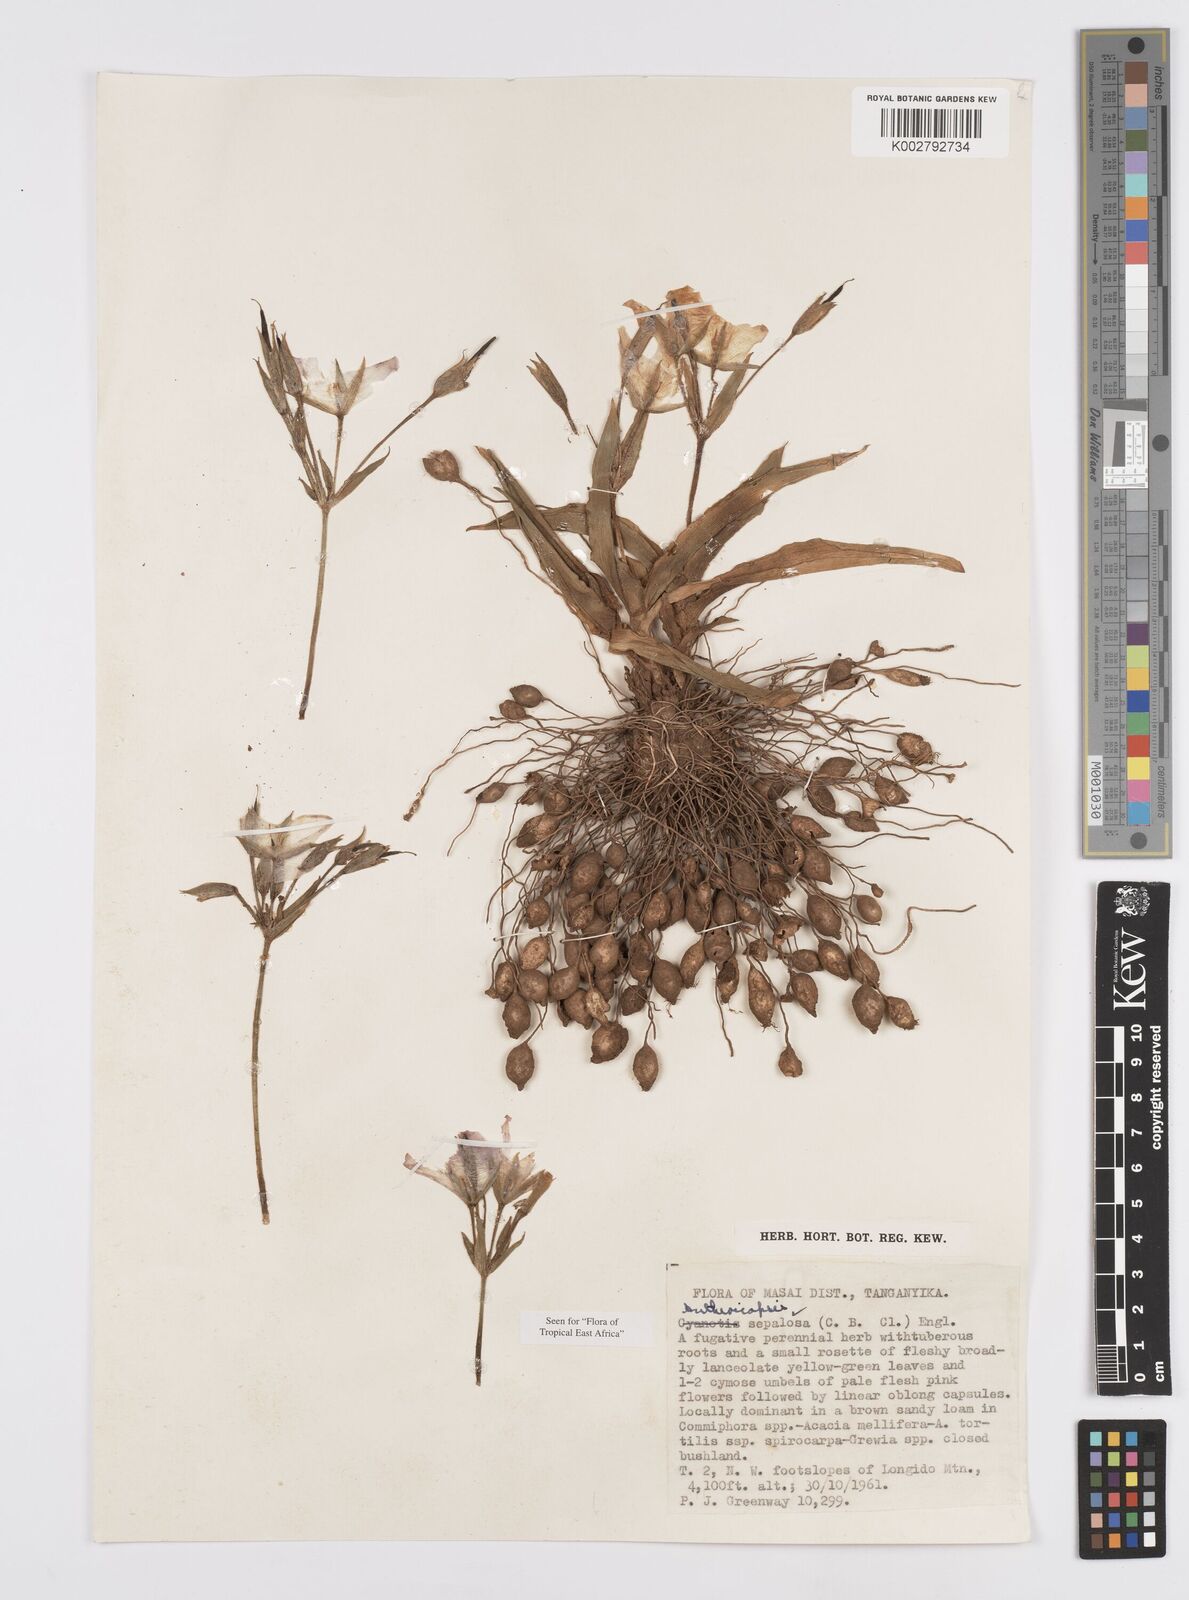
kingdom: Plantae
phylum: Tracheophyta
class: Liliopsida
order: Commelinales
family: Commelinaceae
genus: Anthericopsis
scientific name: Anthericopsis sepalosa
